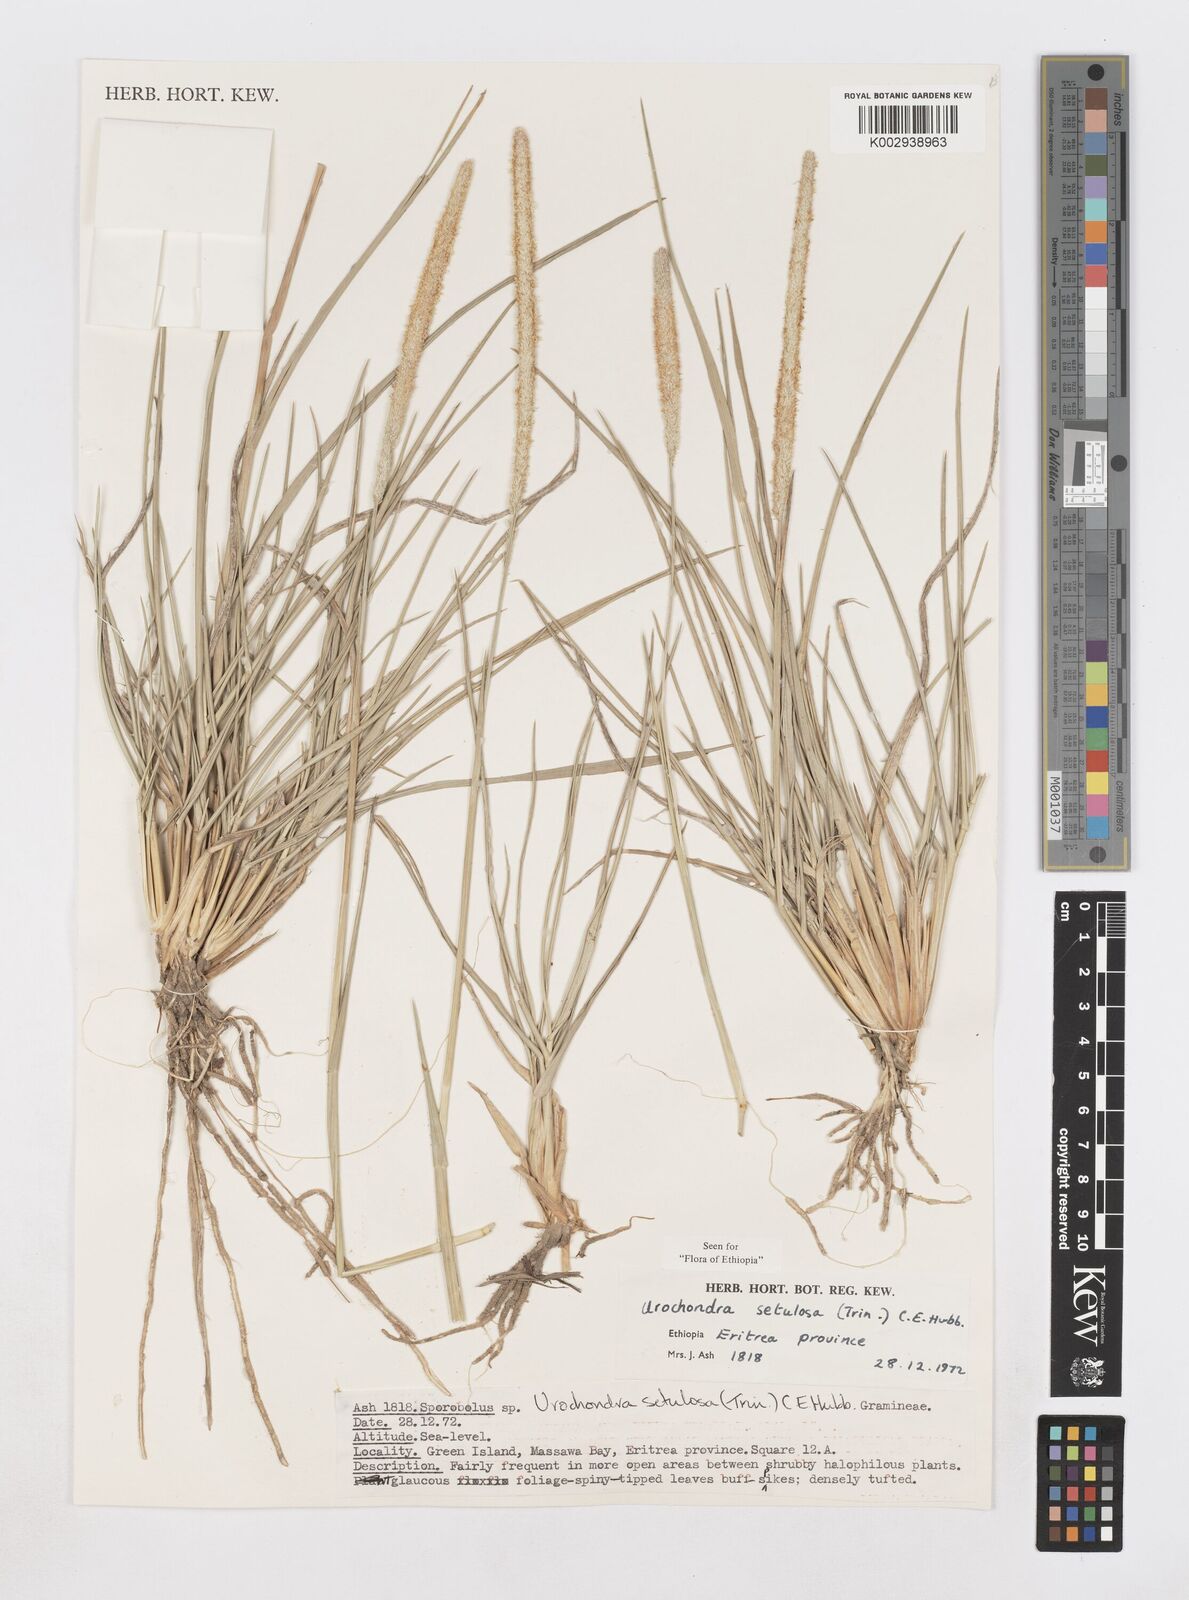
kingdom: Plantae
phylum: Tracheophyta
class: Liliopsida
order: Poales
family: Poaceae
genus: Urochondra
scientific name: Urochondra setulosa
